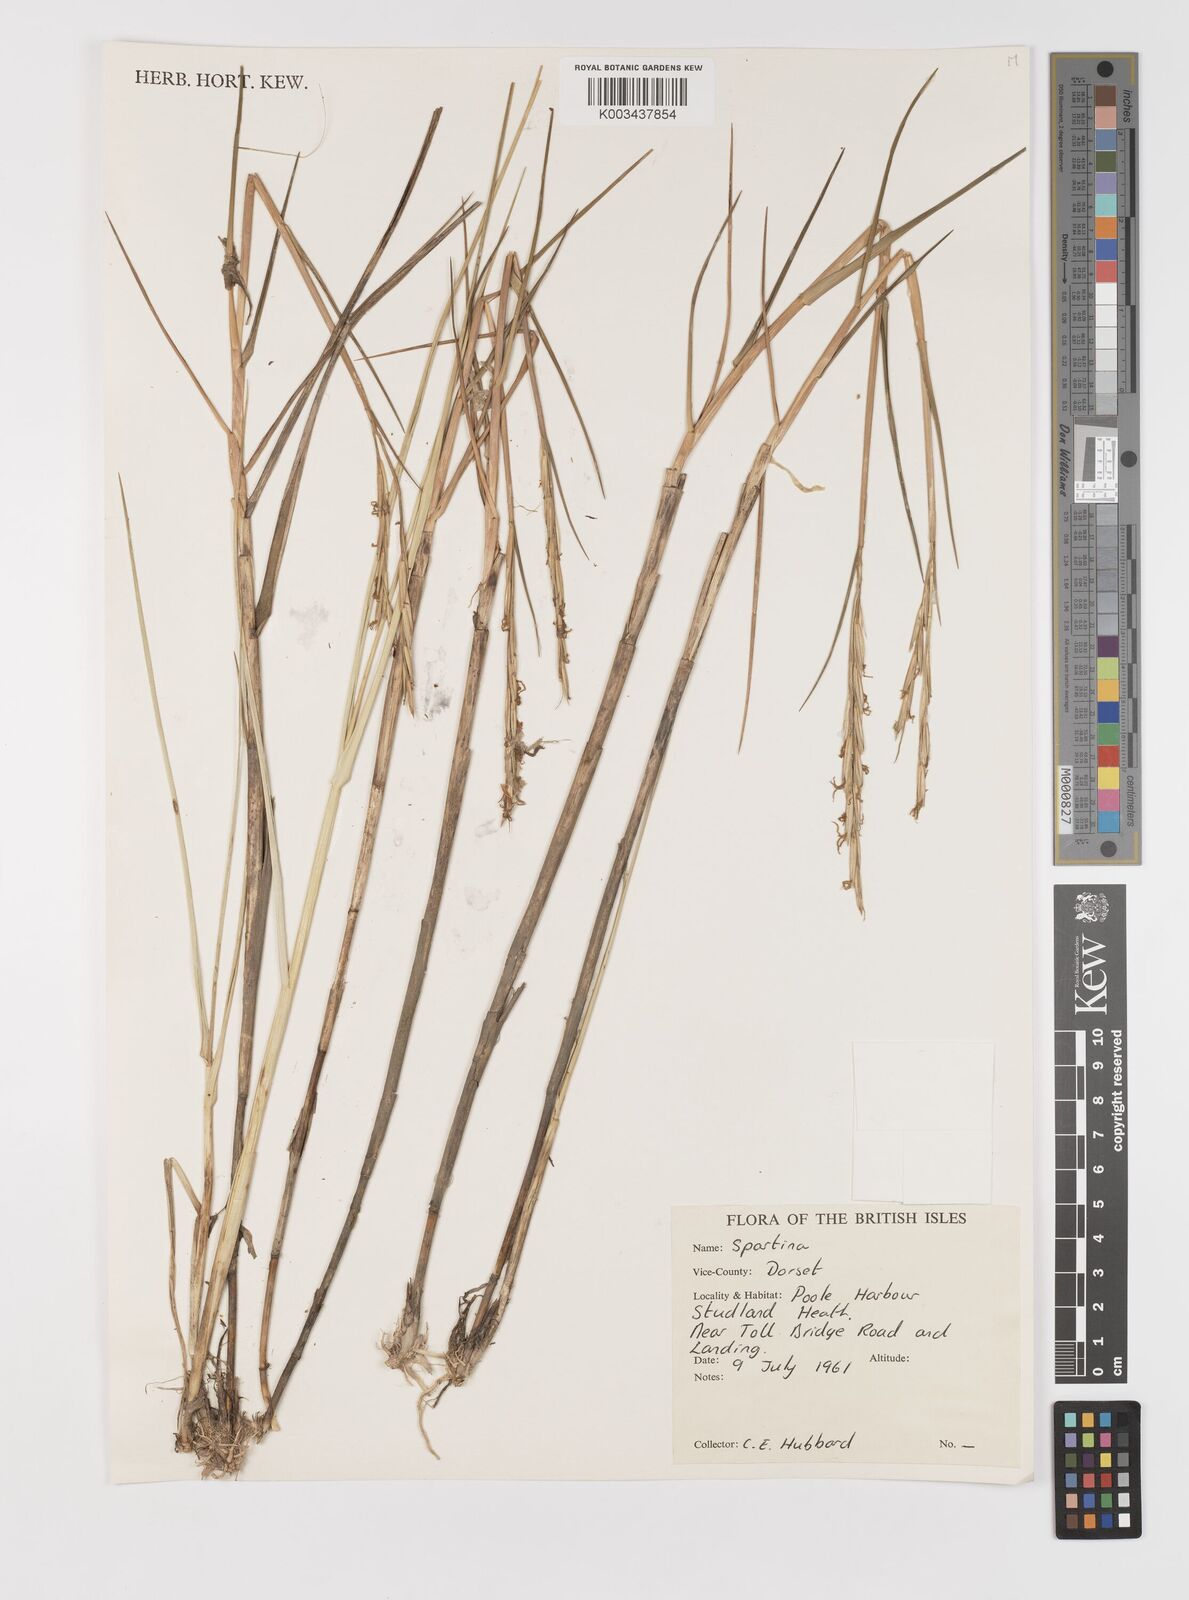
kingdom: Animalia
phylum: Mollusca
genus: Spartina
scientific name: Spartina
